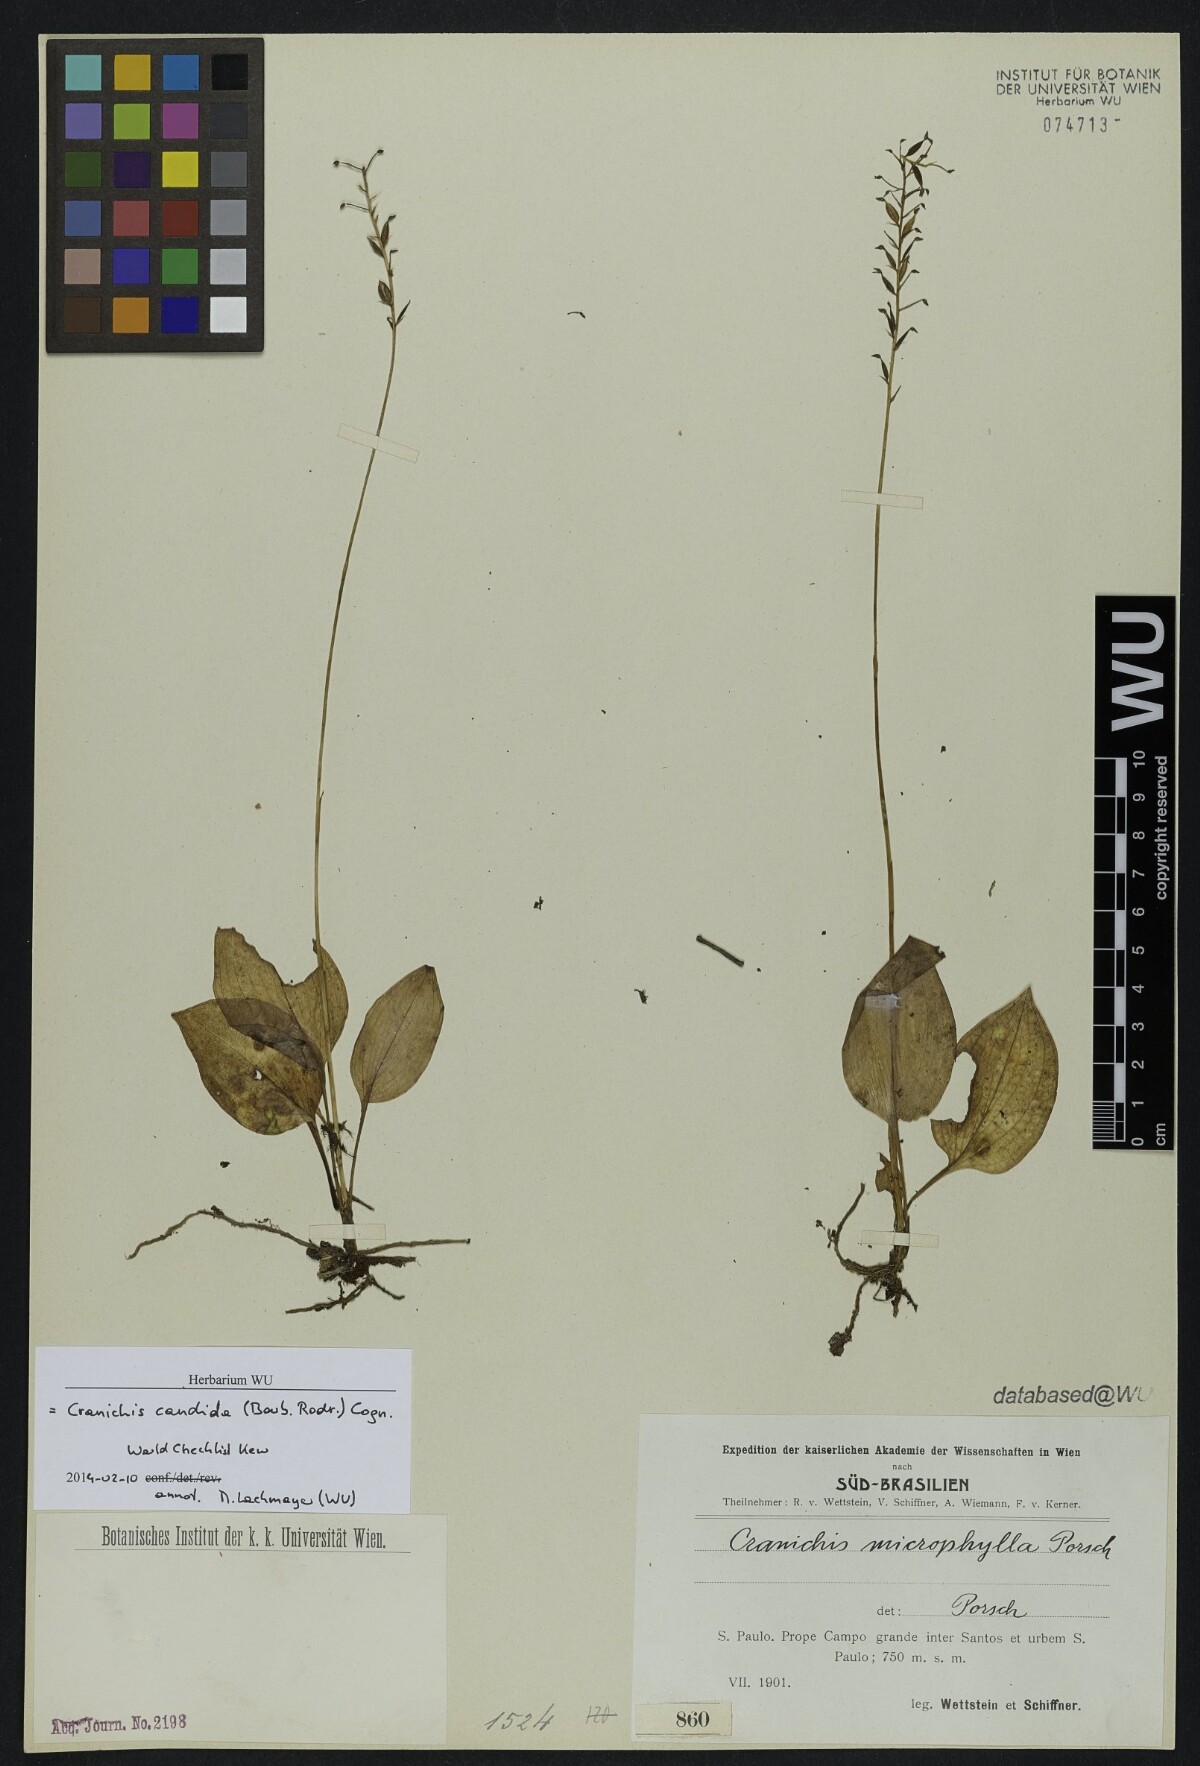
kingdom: Plantae
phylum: Tracheophyta
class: Liliopsida
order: Asparagales
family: Orchidaceae
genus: Cranichis
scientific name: Cranichis candida
